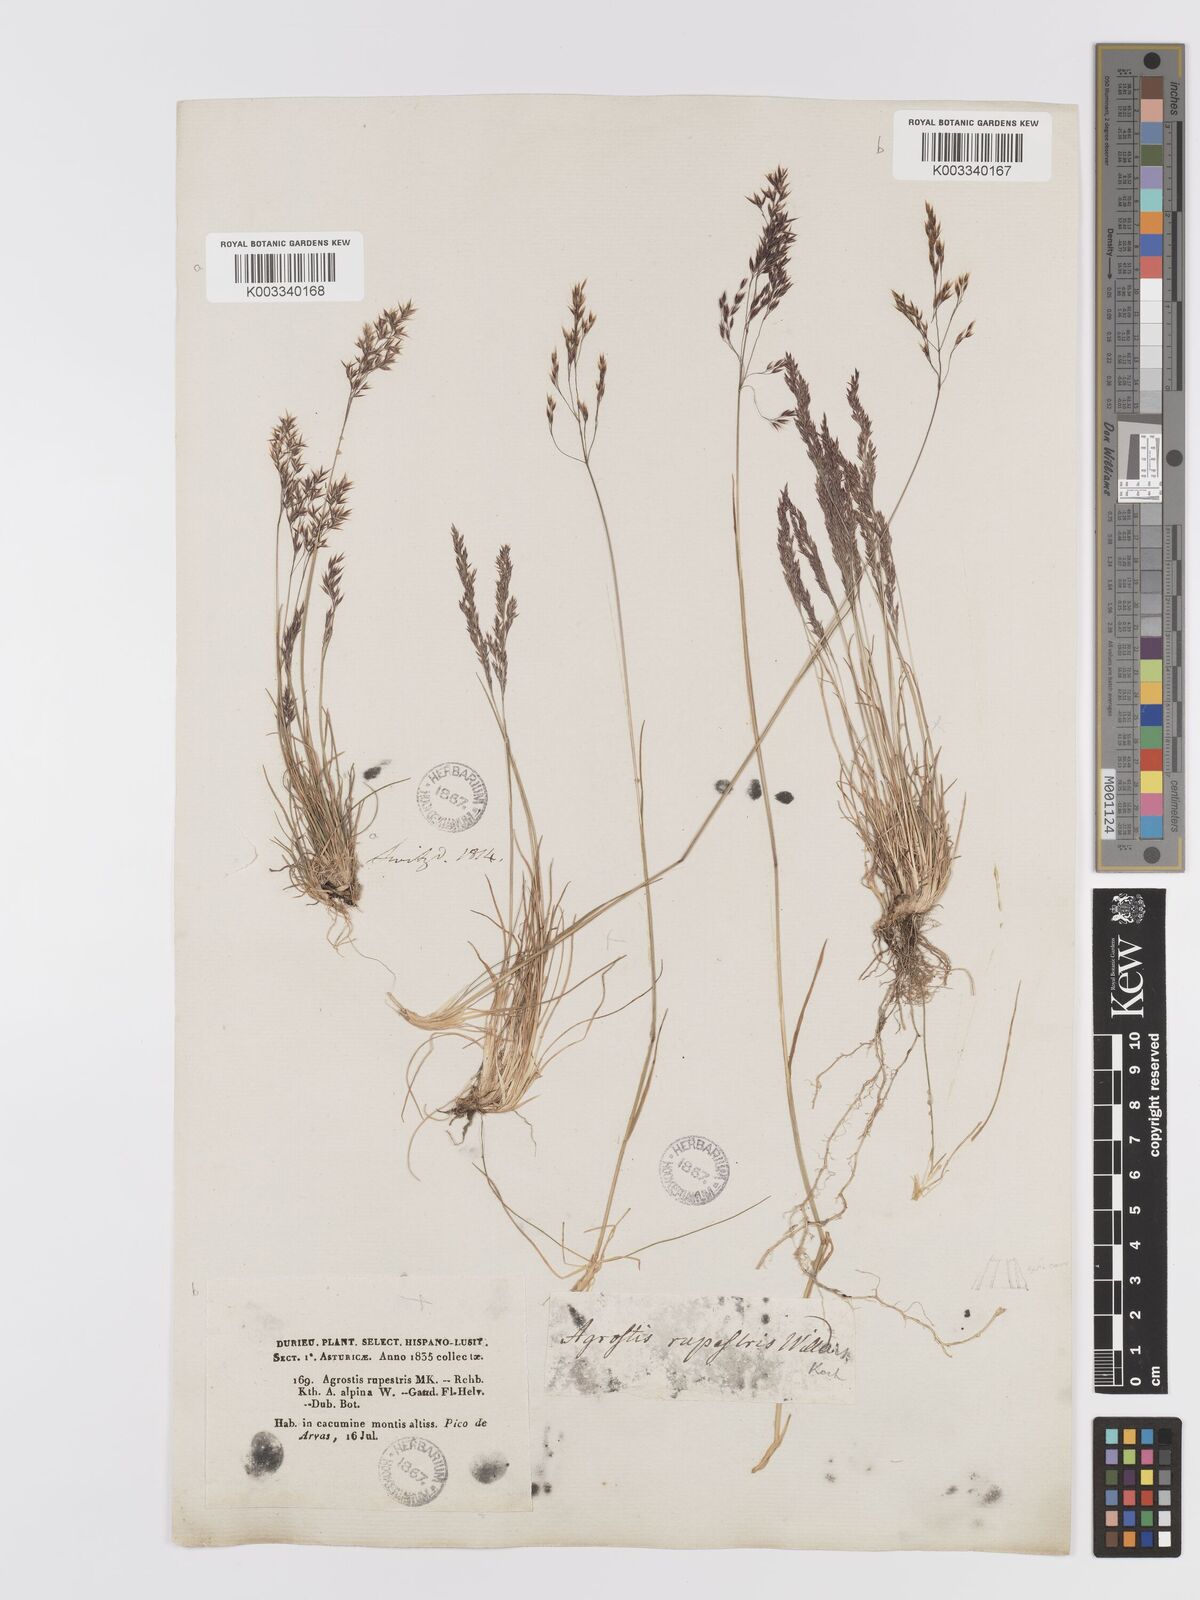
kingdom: Plantae
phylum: Tracheophyta
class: Liliopsida
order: Poales
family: Poaceae
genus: Agrostis
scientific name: Agrostis rupestris
